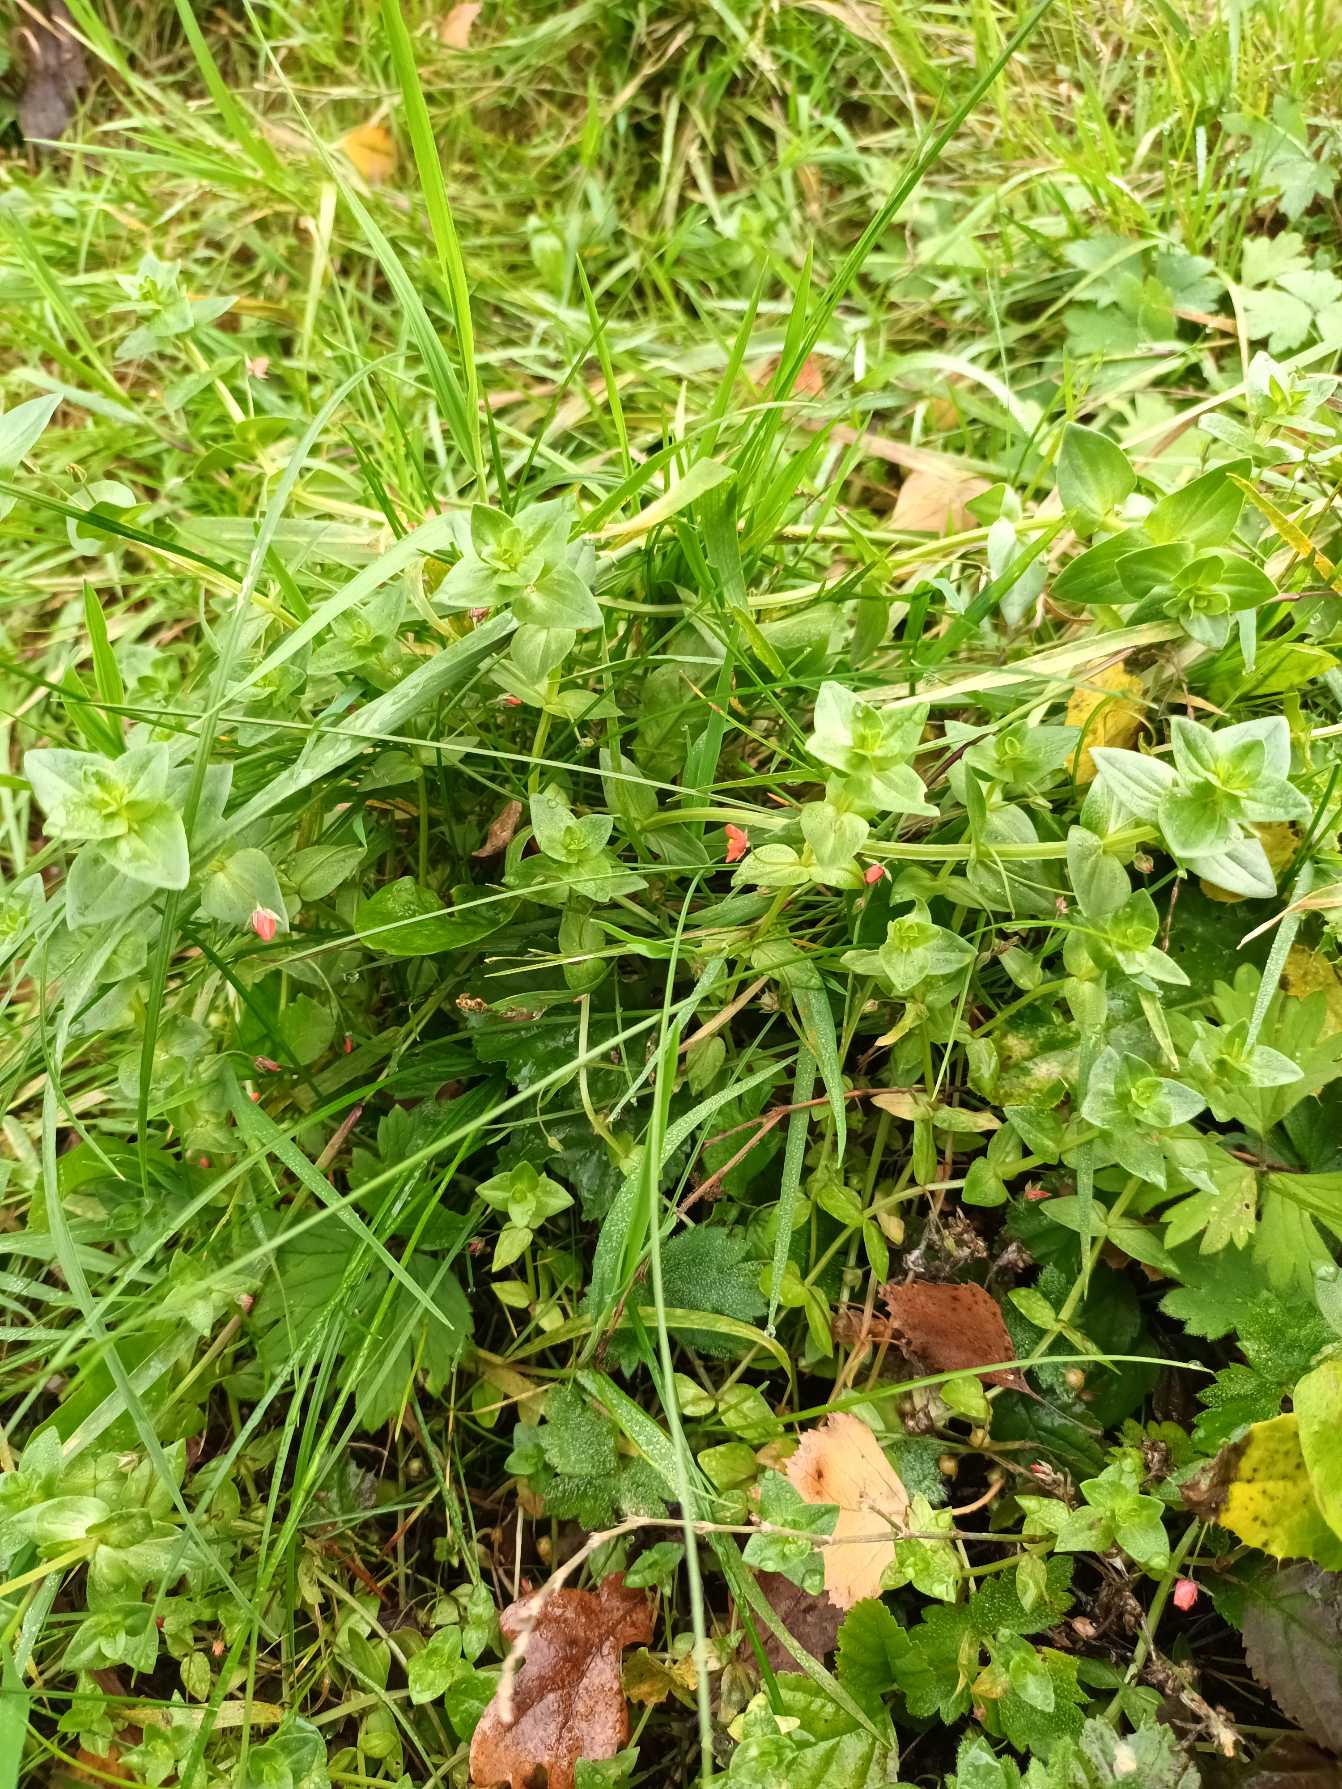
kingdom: Plantae
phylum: Tracheophyta
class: Magnoliopsida
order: Ericales
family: Primulaceae
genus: Lysimachia
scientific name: Lysimachia arvensis
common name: Rød arve
